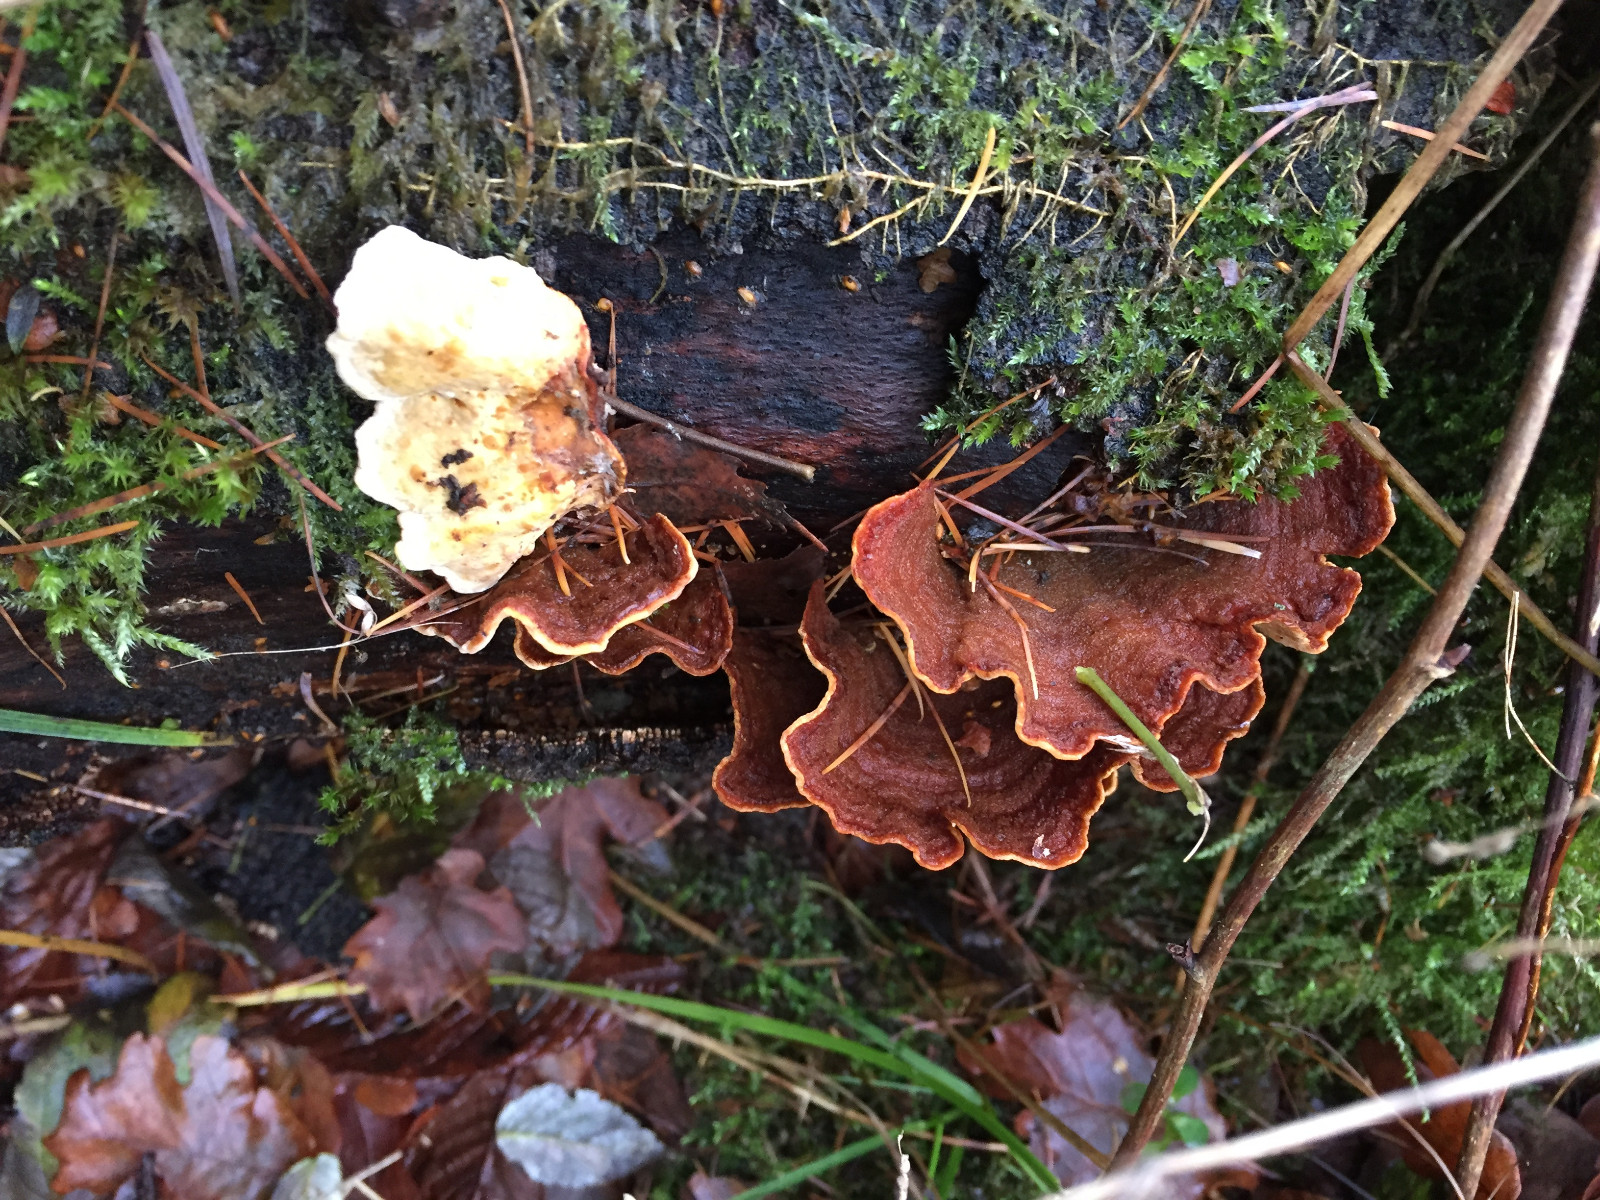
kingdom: Fungi
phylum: Basidiomycota
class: Agaricomycetes
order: Russulales
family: Stereaceae
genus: Stereum
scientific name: Stereum subtomentosum
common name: smuk lædersvamp
